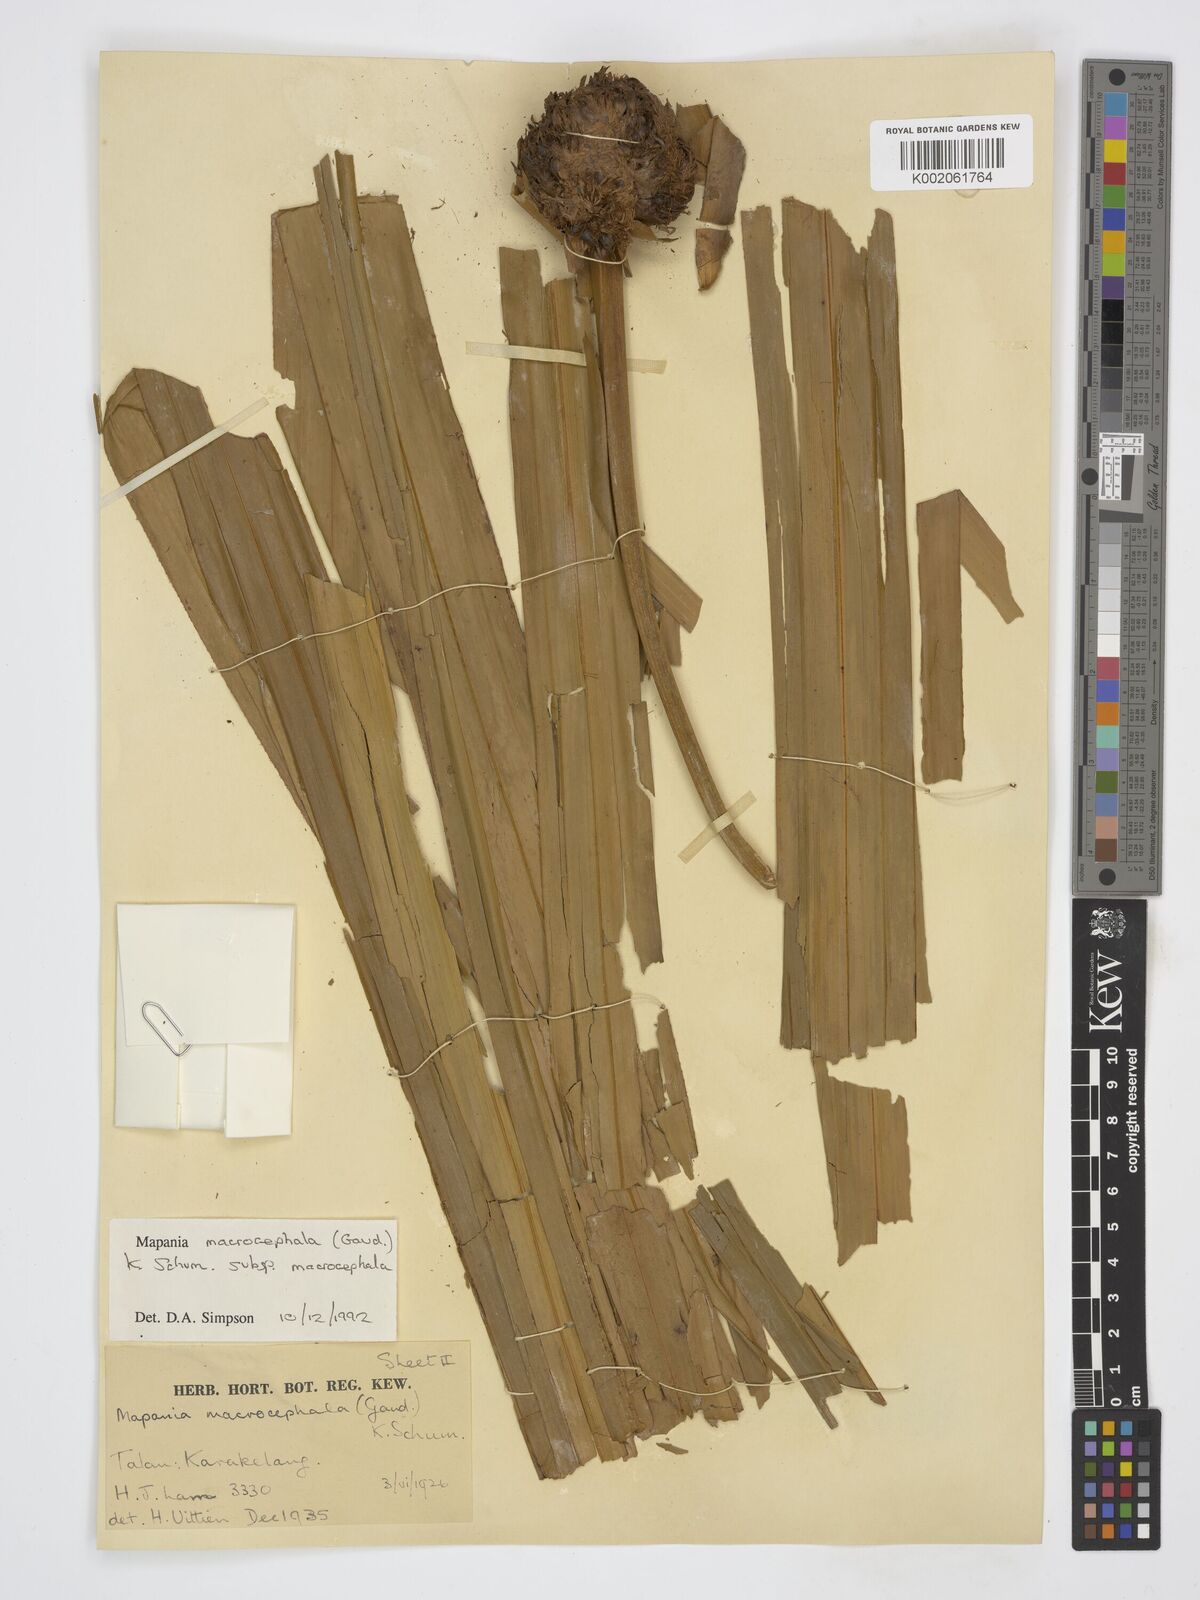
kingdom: Plantae
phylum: Tracheophyta
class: Liliopsida
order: Poales
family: Cyperaceae
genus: Mapania
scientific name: Mapania macrocephala
